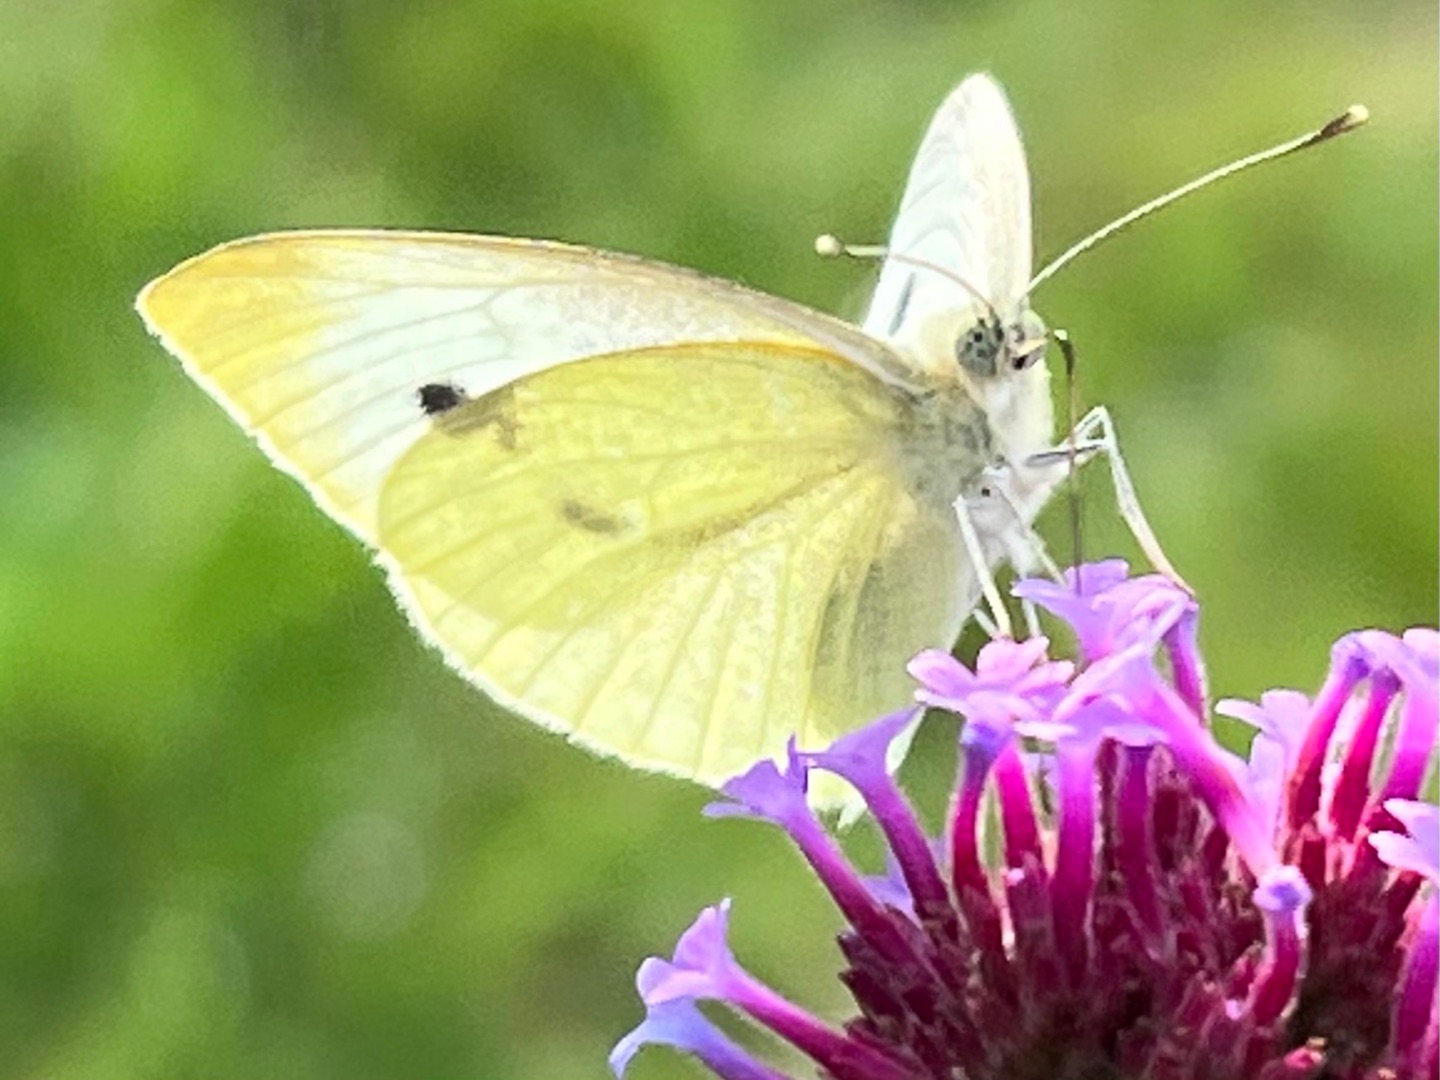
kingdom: Animalia
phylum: Arthropoda
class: Insecta
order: Lepidoptera
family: Pieridae
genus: Pieris
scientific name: Pieris brassicae
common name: Stor kålsommerfugl
